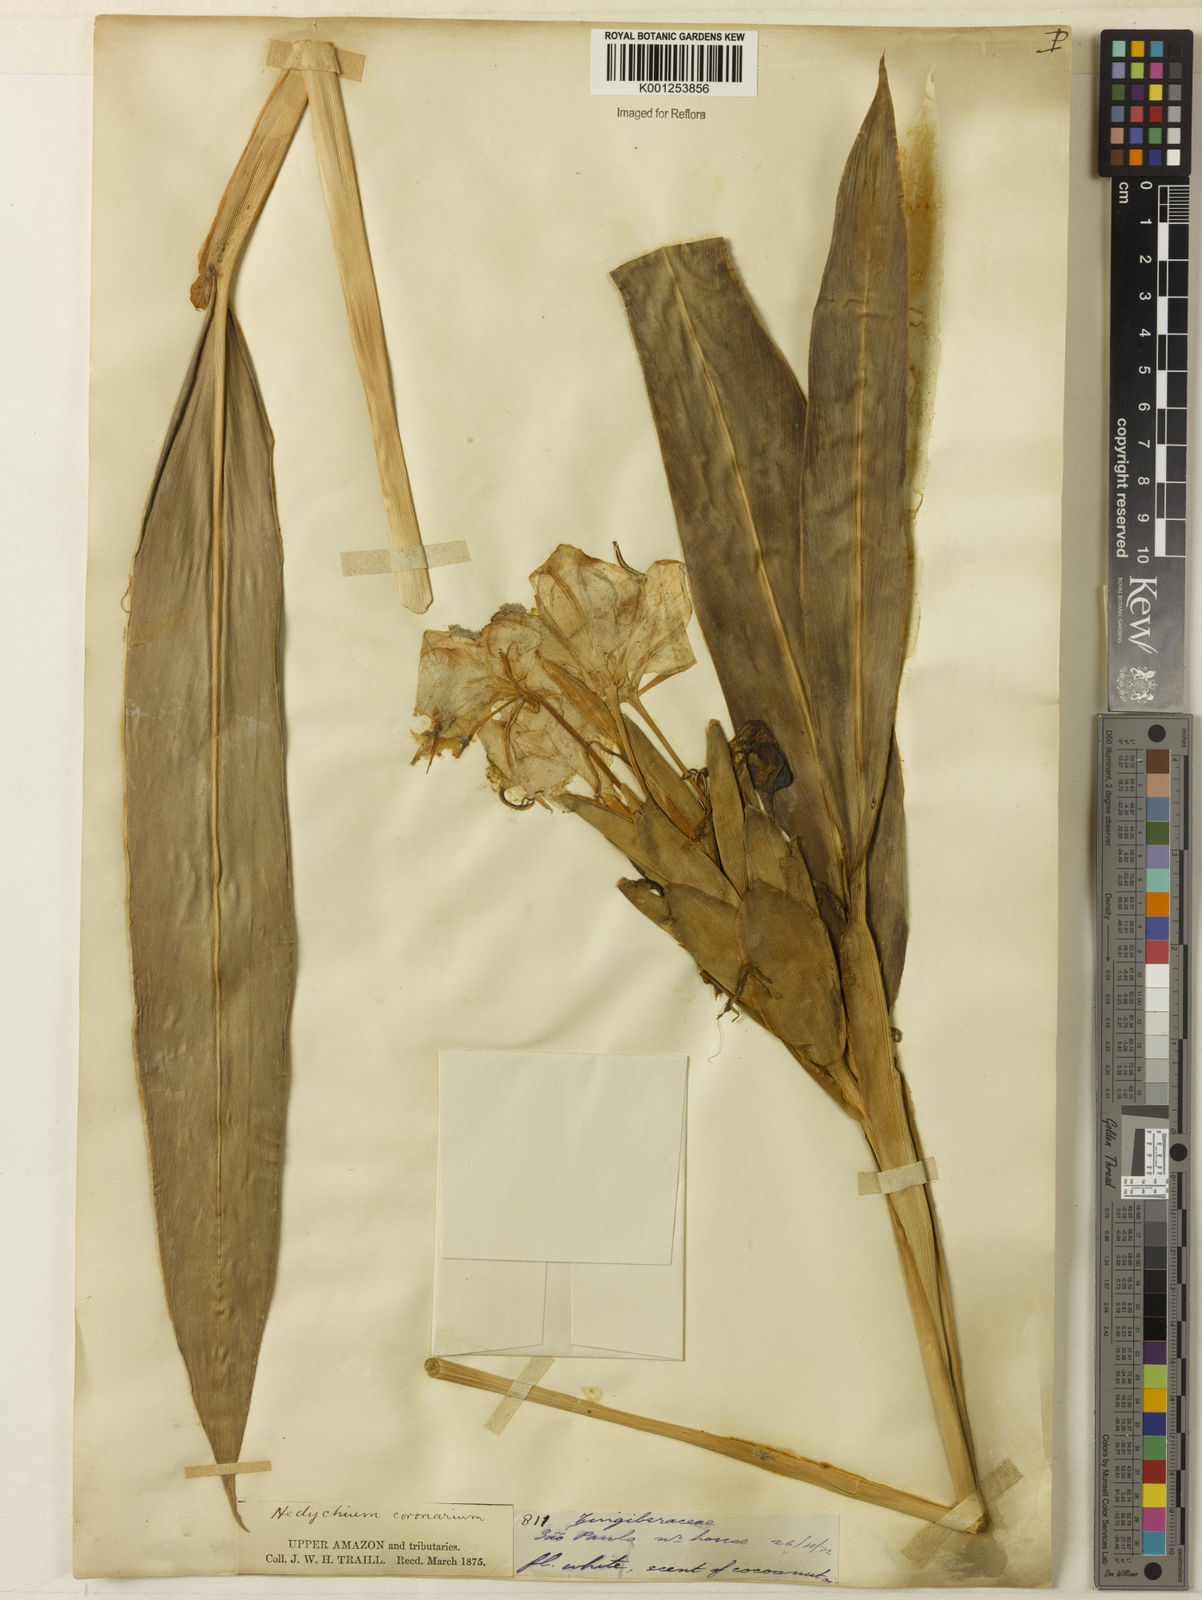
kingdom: Plantae
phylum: Tracheophyta
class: Liliopsida
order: Zingiberales
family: Zingiberaceae
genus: Hedychium
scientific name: Hedychium coronarium
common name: White garland-lily
